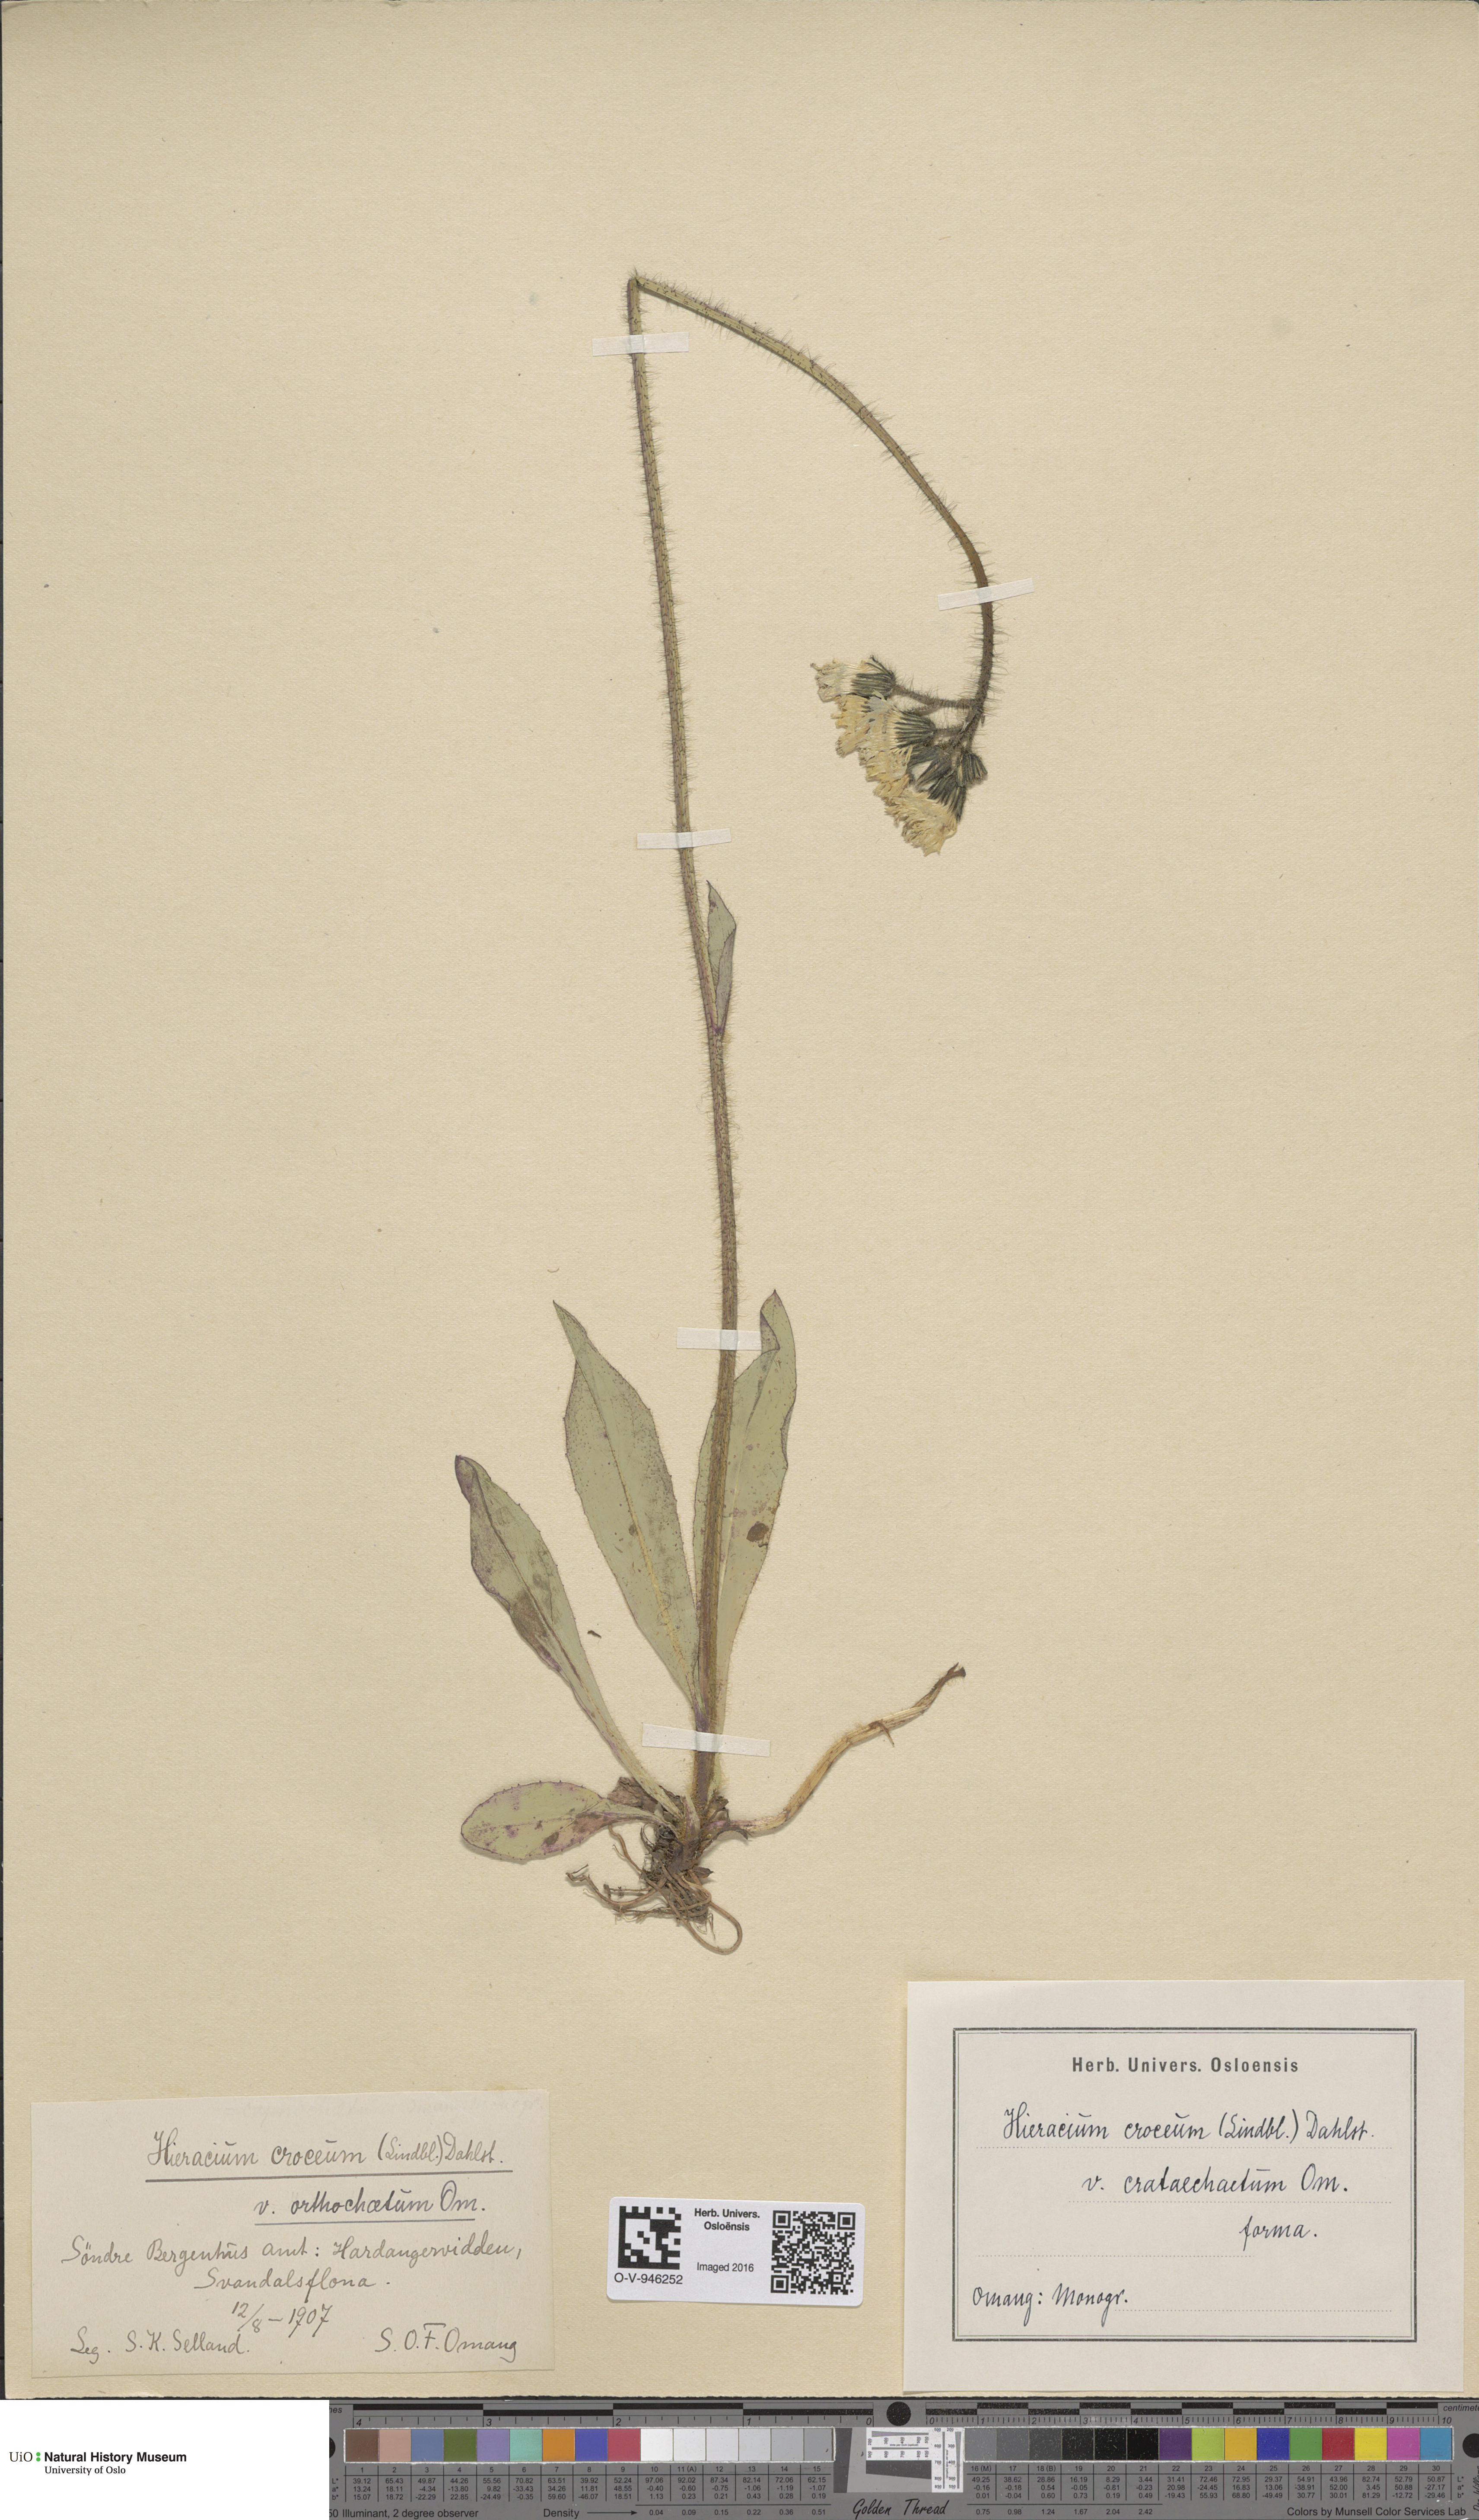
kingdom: Plantae
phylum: Tracheophyta
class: Magnoliopsida
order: Asterales
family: Asteraceae
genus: Pilosella
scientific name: Pilosella fuscoatra
